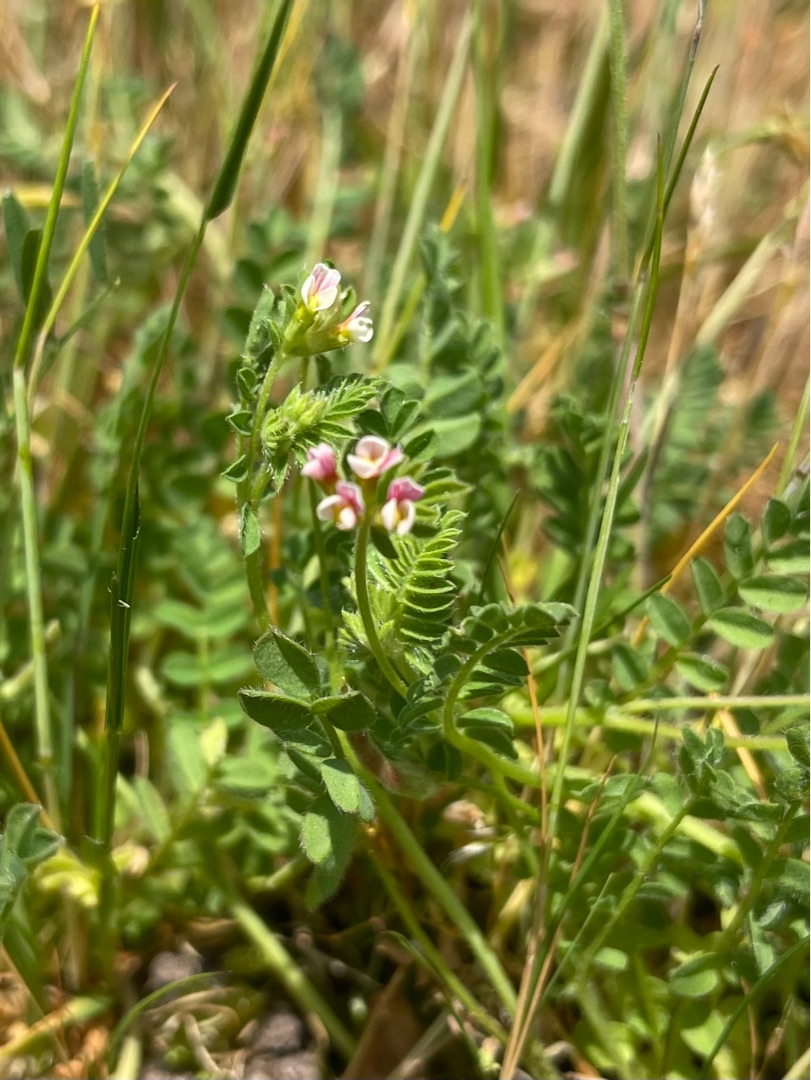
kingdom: Plantae
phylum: Tracheophyta
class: Magnoliopsida
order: Fabales
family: Fabaceae
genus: Ornithopus
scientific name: Ornithopus perpusillus
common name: Liden fugleklo
